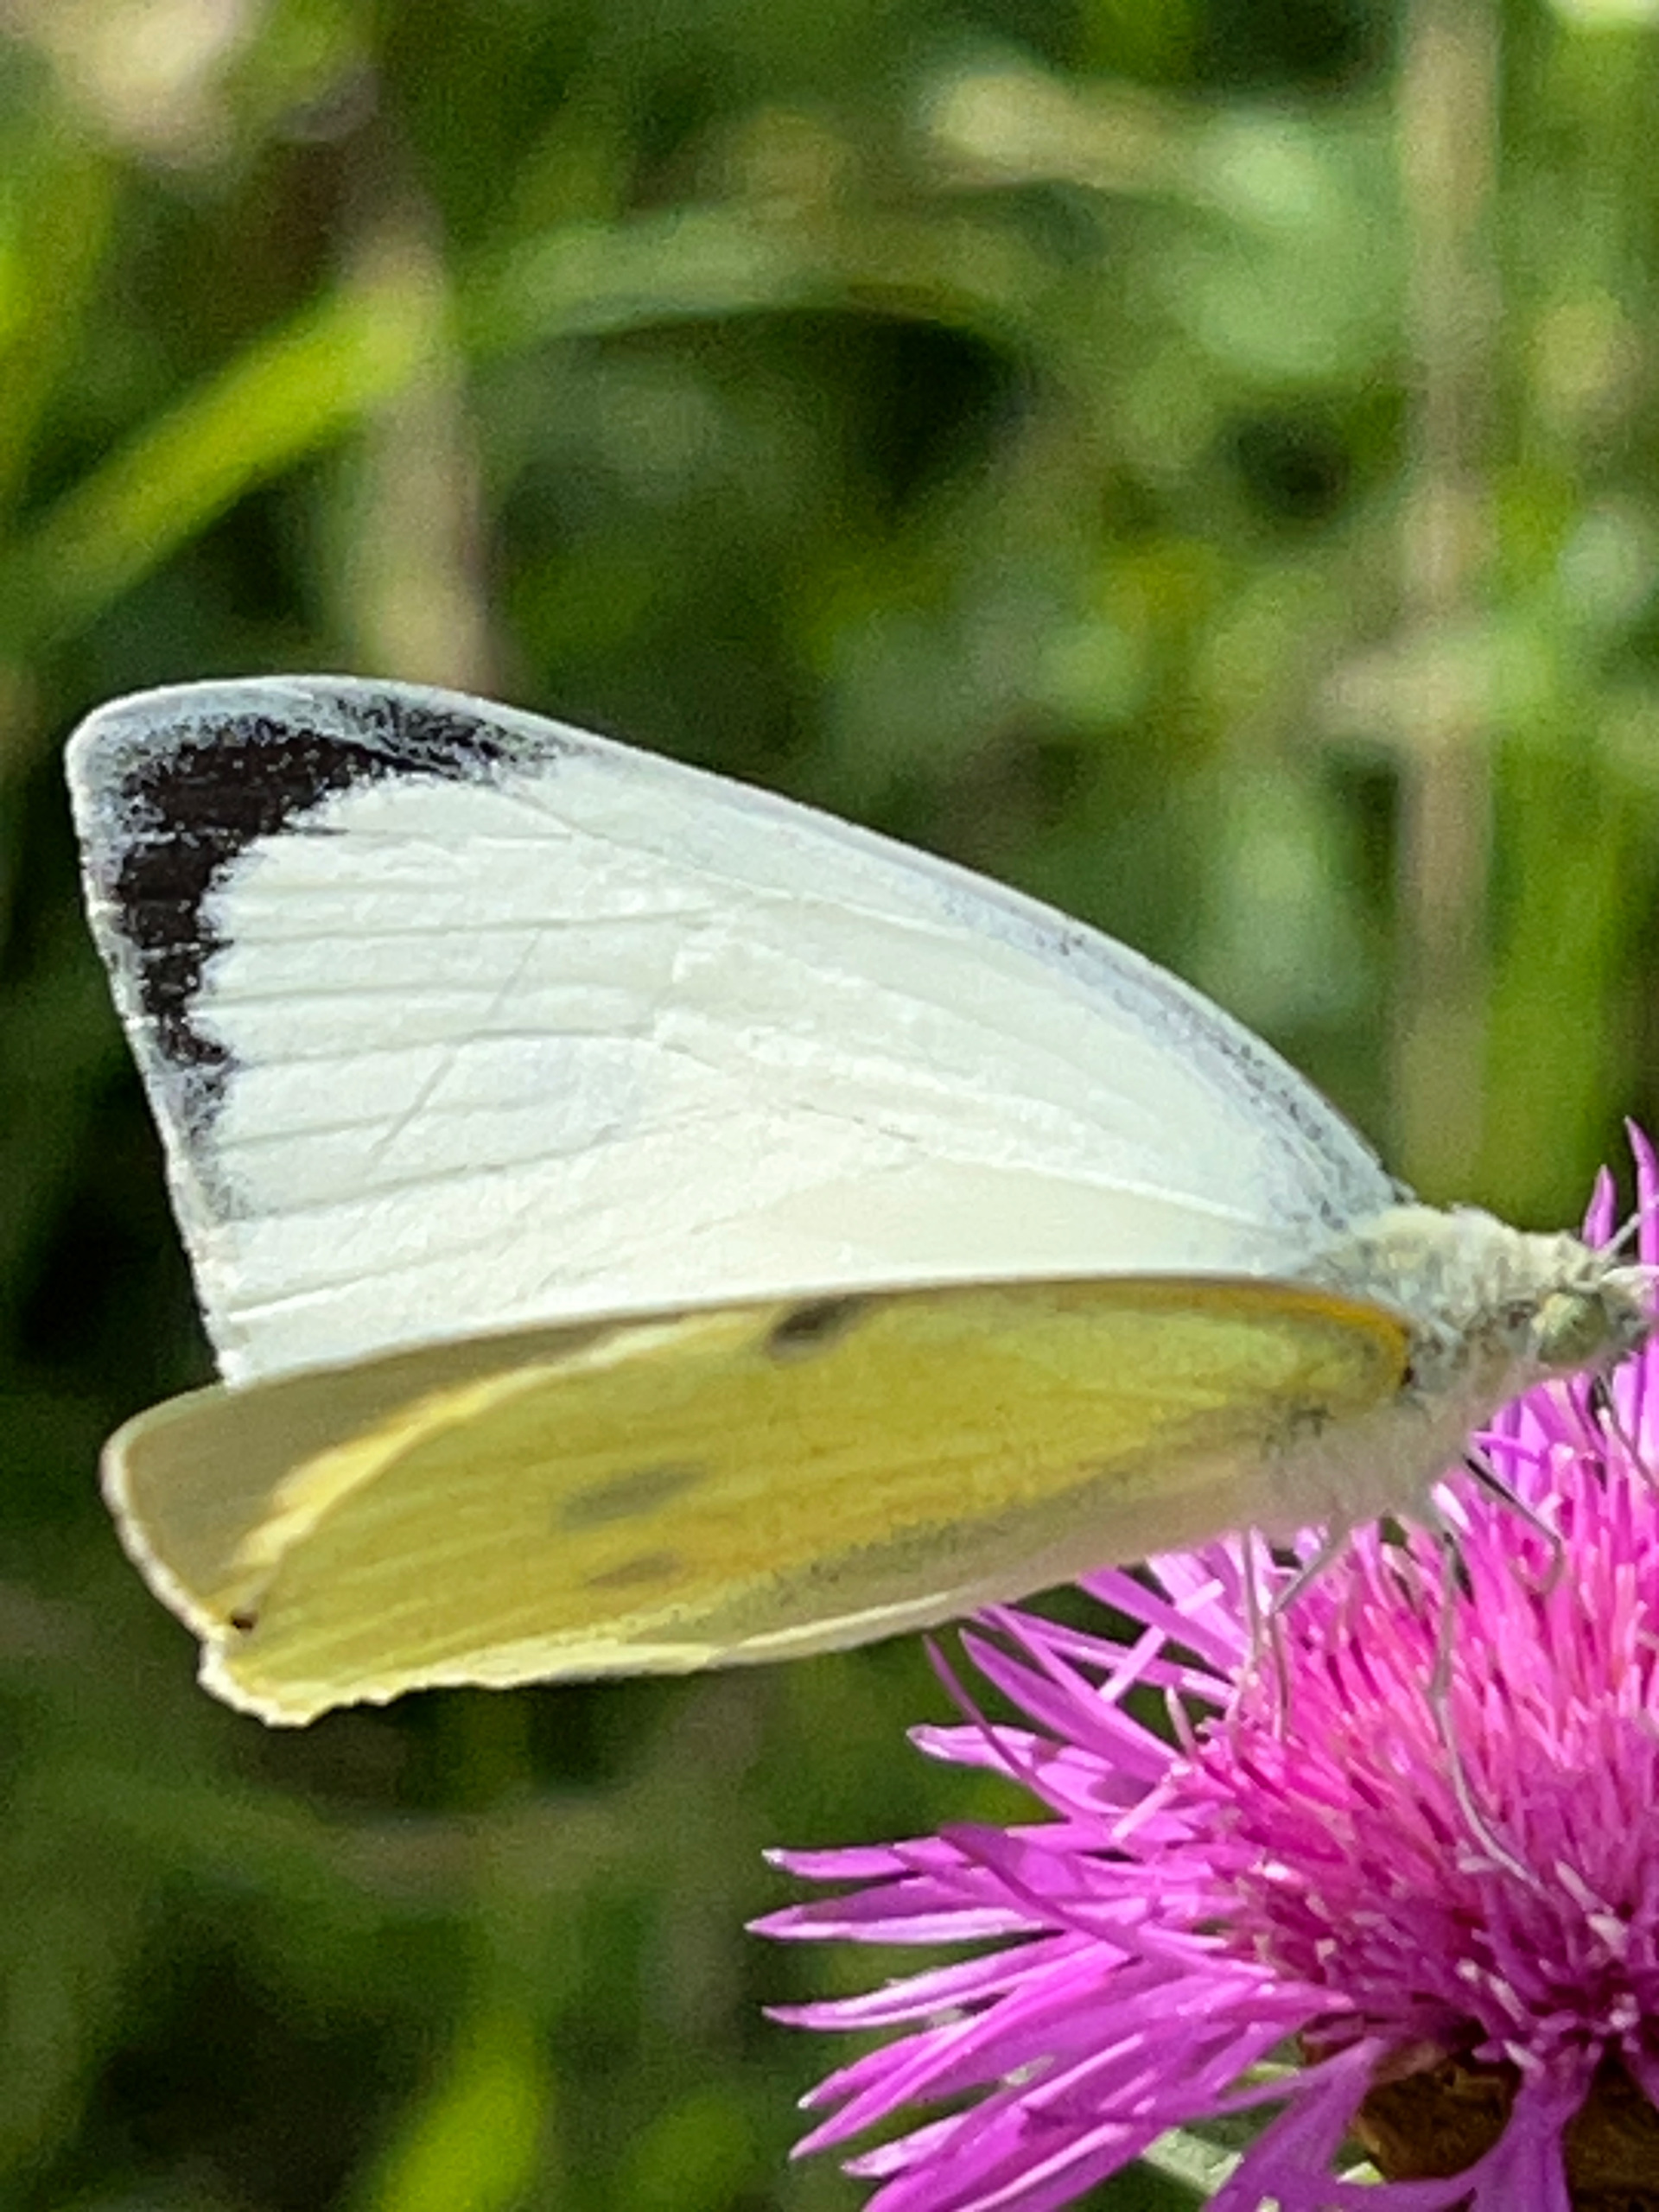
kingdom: Animalia
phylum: Arthropoda
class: Insecta
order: Lepidoptera
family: Pieridae
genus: Pieris
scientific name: Pieris brassicae
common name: Stor kålsommerfugl
